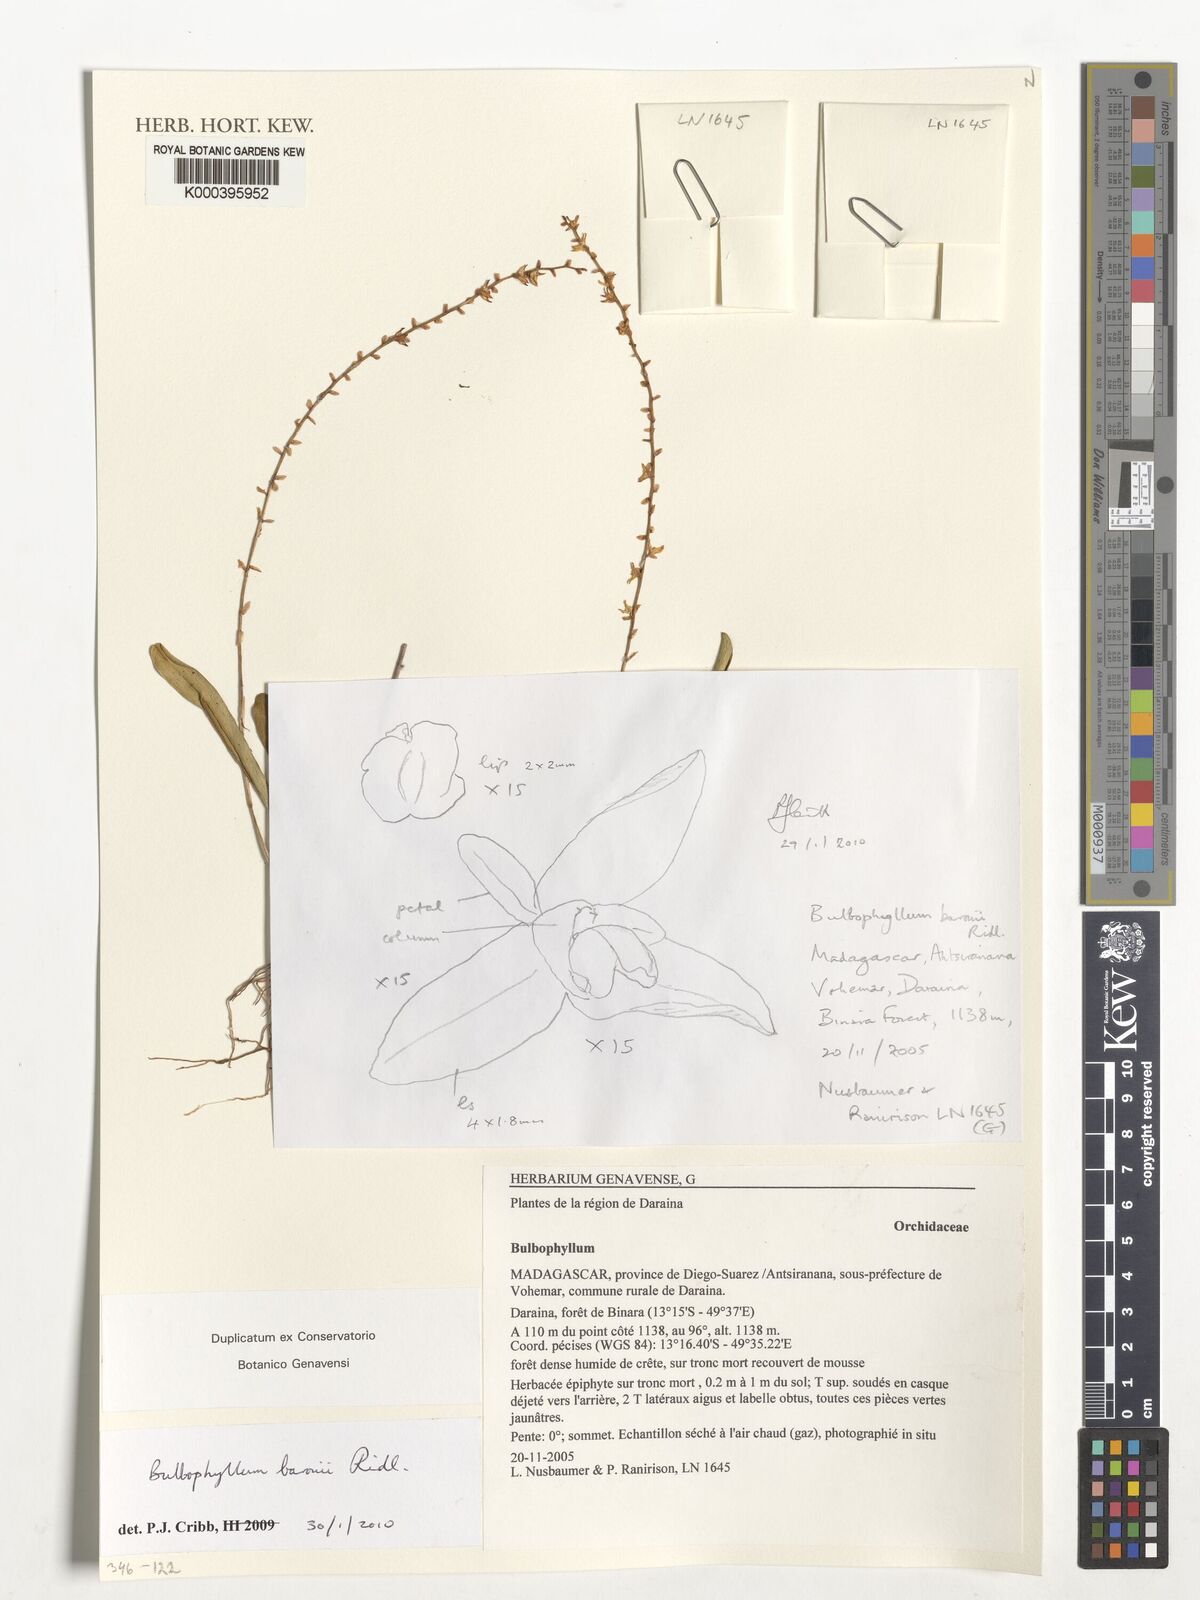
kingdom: Plantae
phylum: Tracheophyta
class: Liliopsida
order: Asparagales
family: Orchidaceae
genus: Bulbophyllum
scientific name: Bulbophyllum baronii
